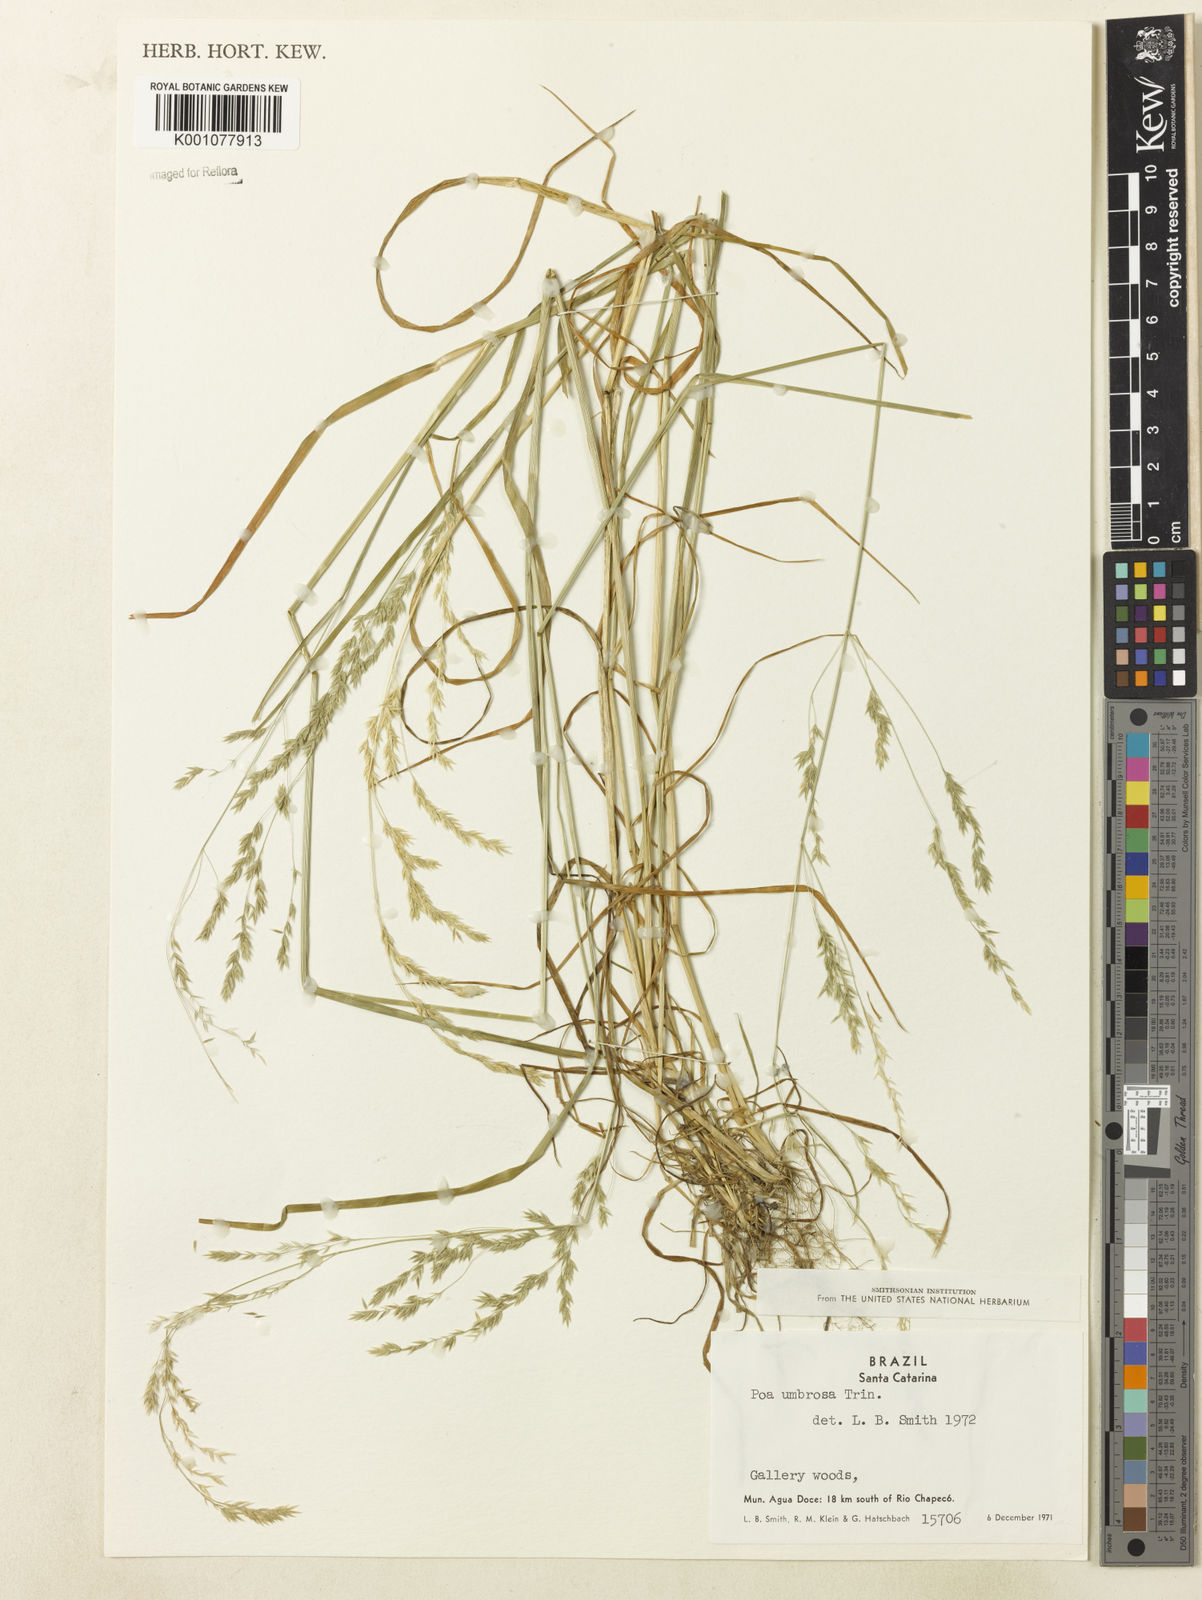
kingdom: Plantae
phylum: Tracheophyta
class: Liliopsida
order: Poales
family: Poaceae
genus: Poa
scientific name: Poa umbrosa
